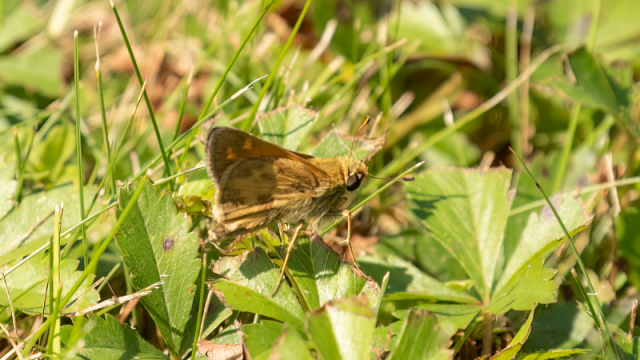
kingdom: Animalia
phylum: Arthropoda
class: Insecta
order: Lepidoptera
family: Hesperiidae
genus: Atalopedes
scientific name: Atalopedes campestris
